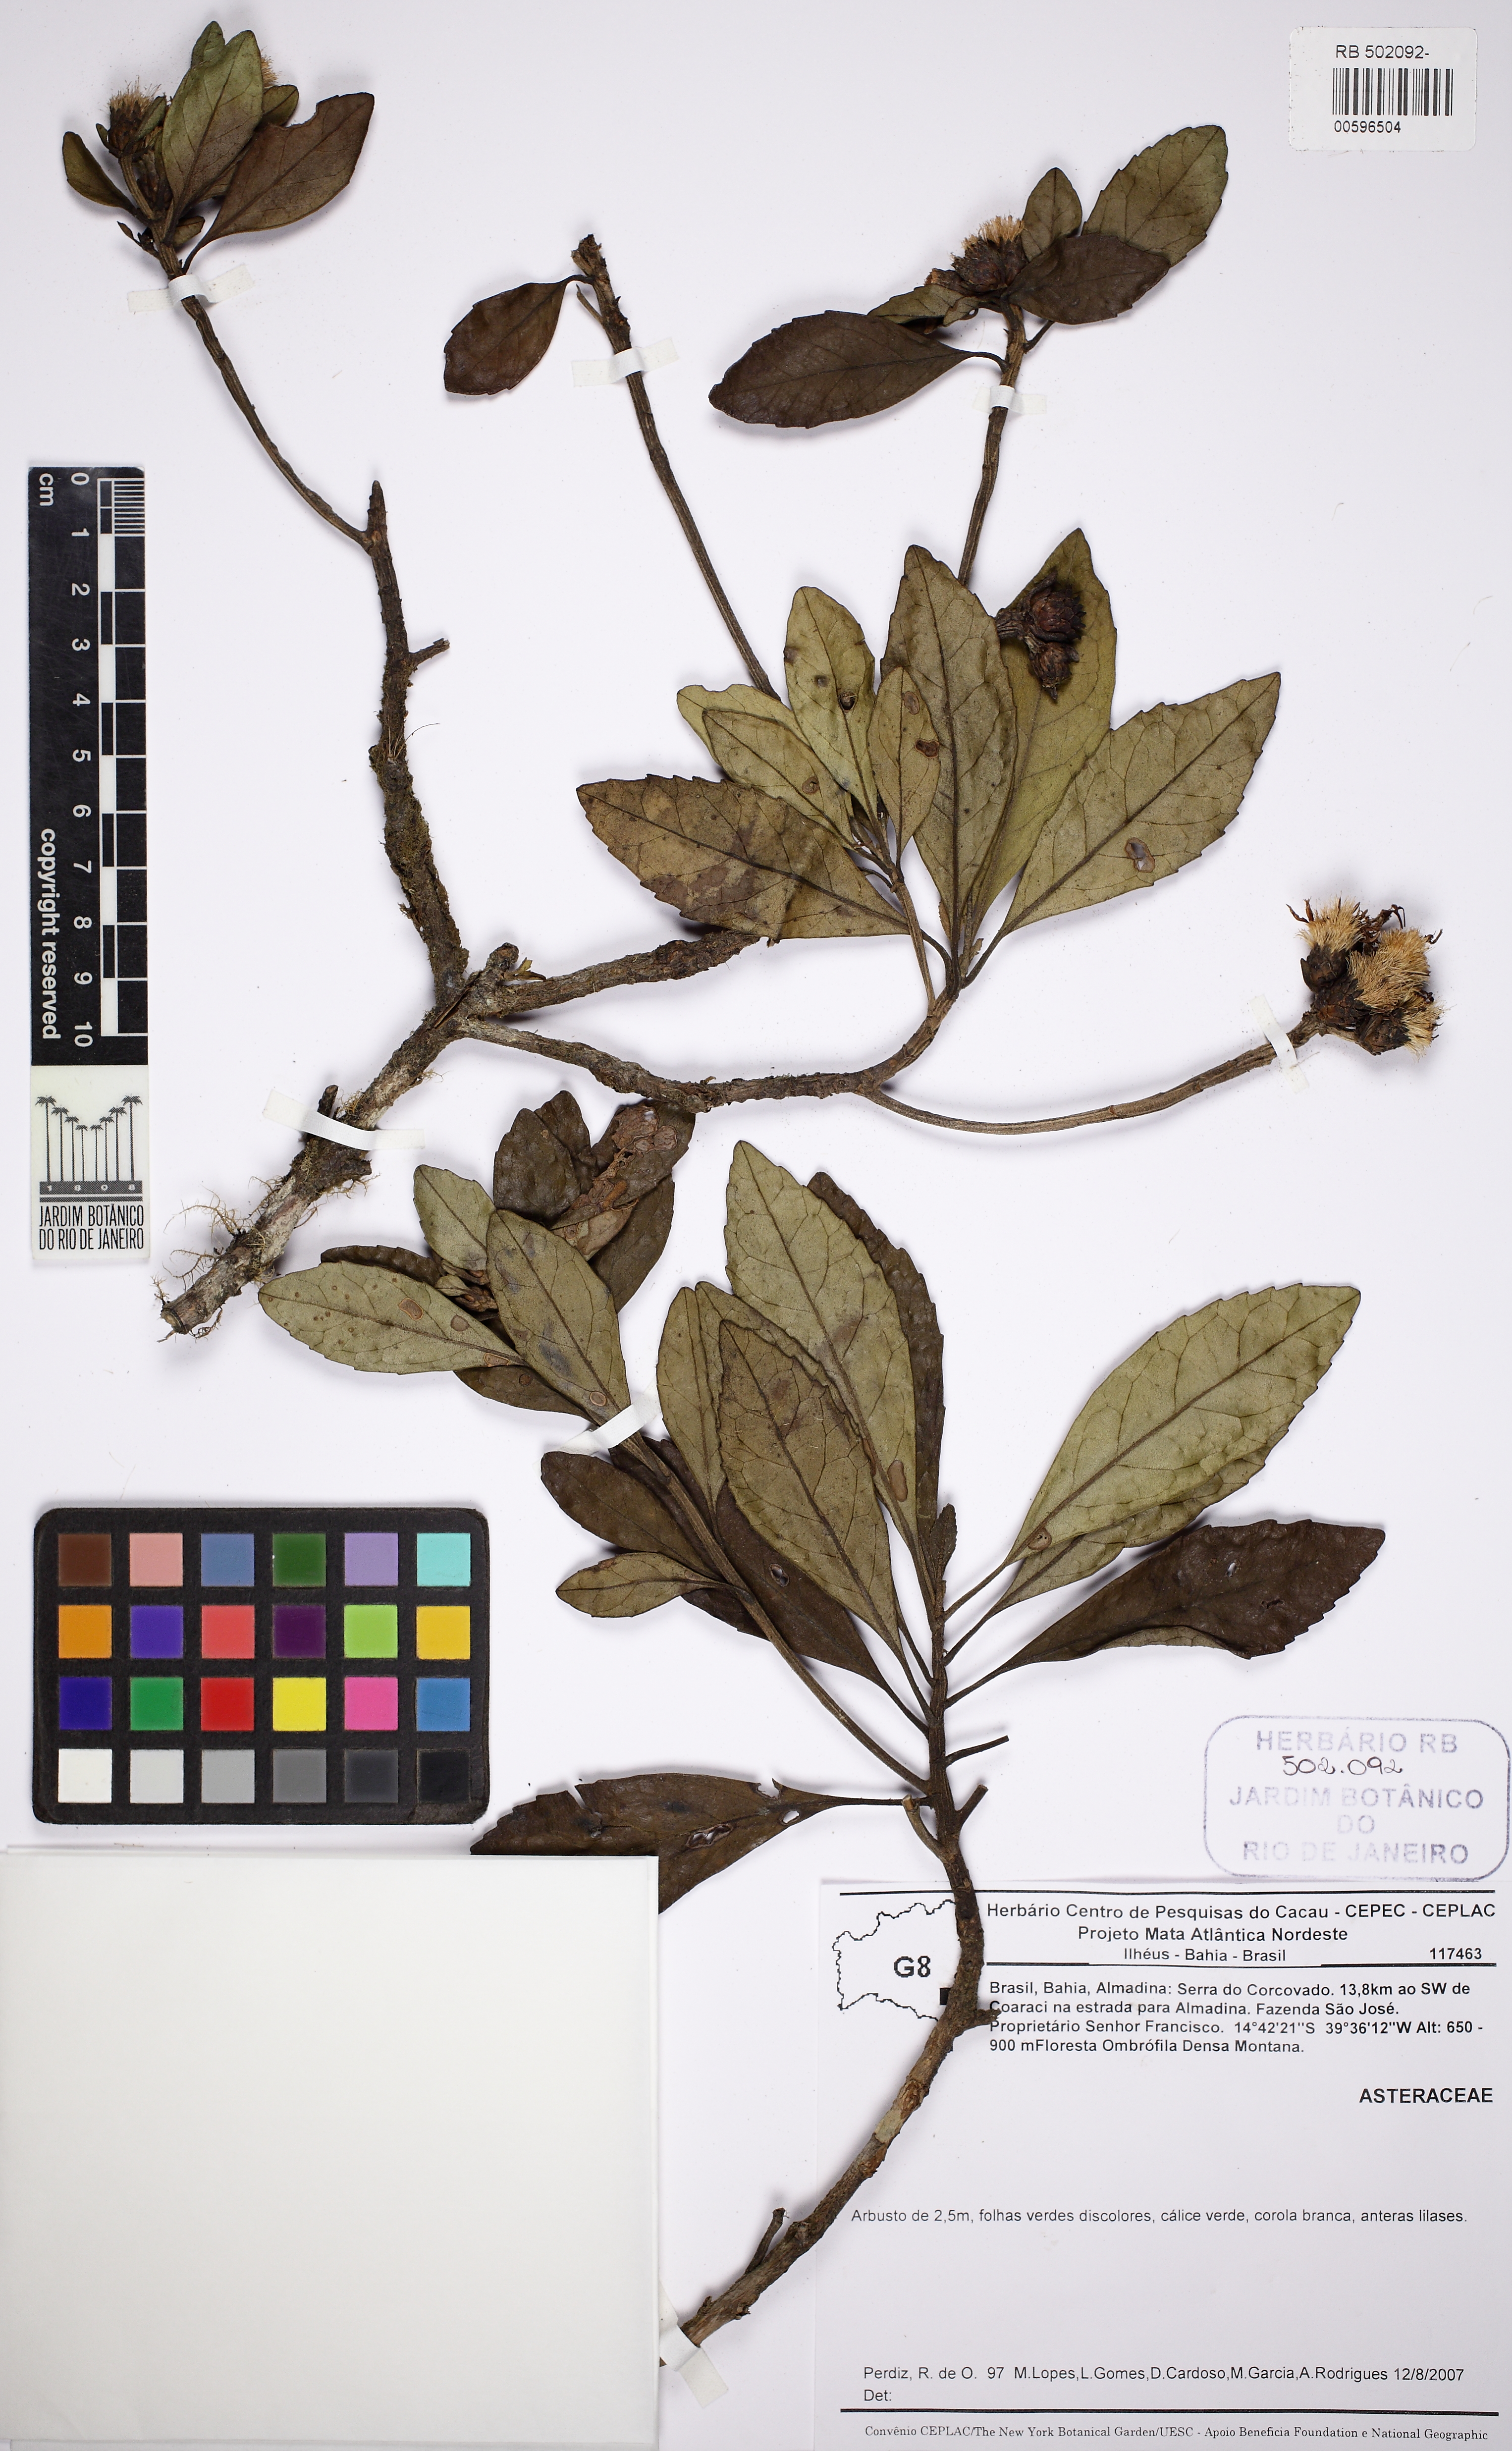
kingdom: Plantae
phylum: Tracheophyta
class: Magnoliopsida
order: Asterales
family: Asteraceae
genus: Vernonanthura
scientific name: Vernonanthura vinhae
